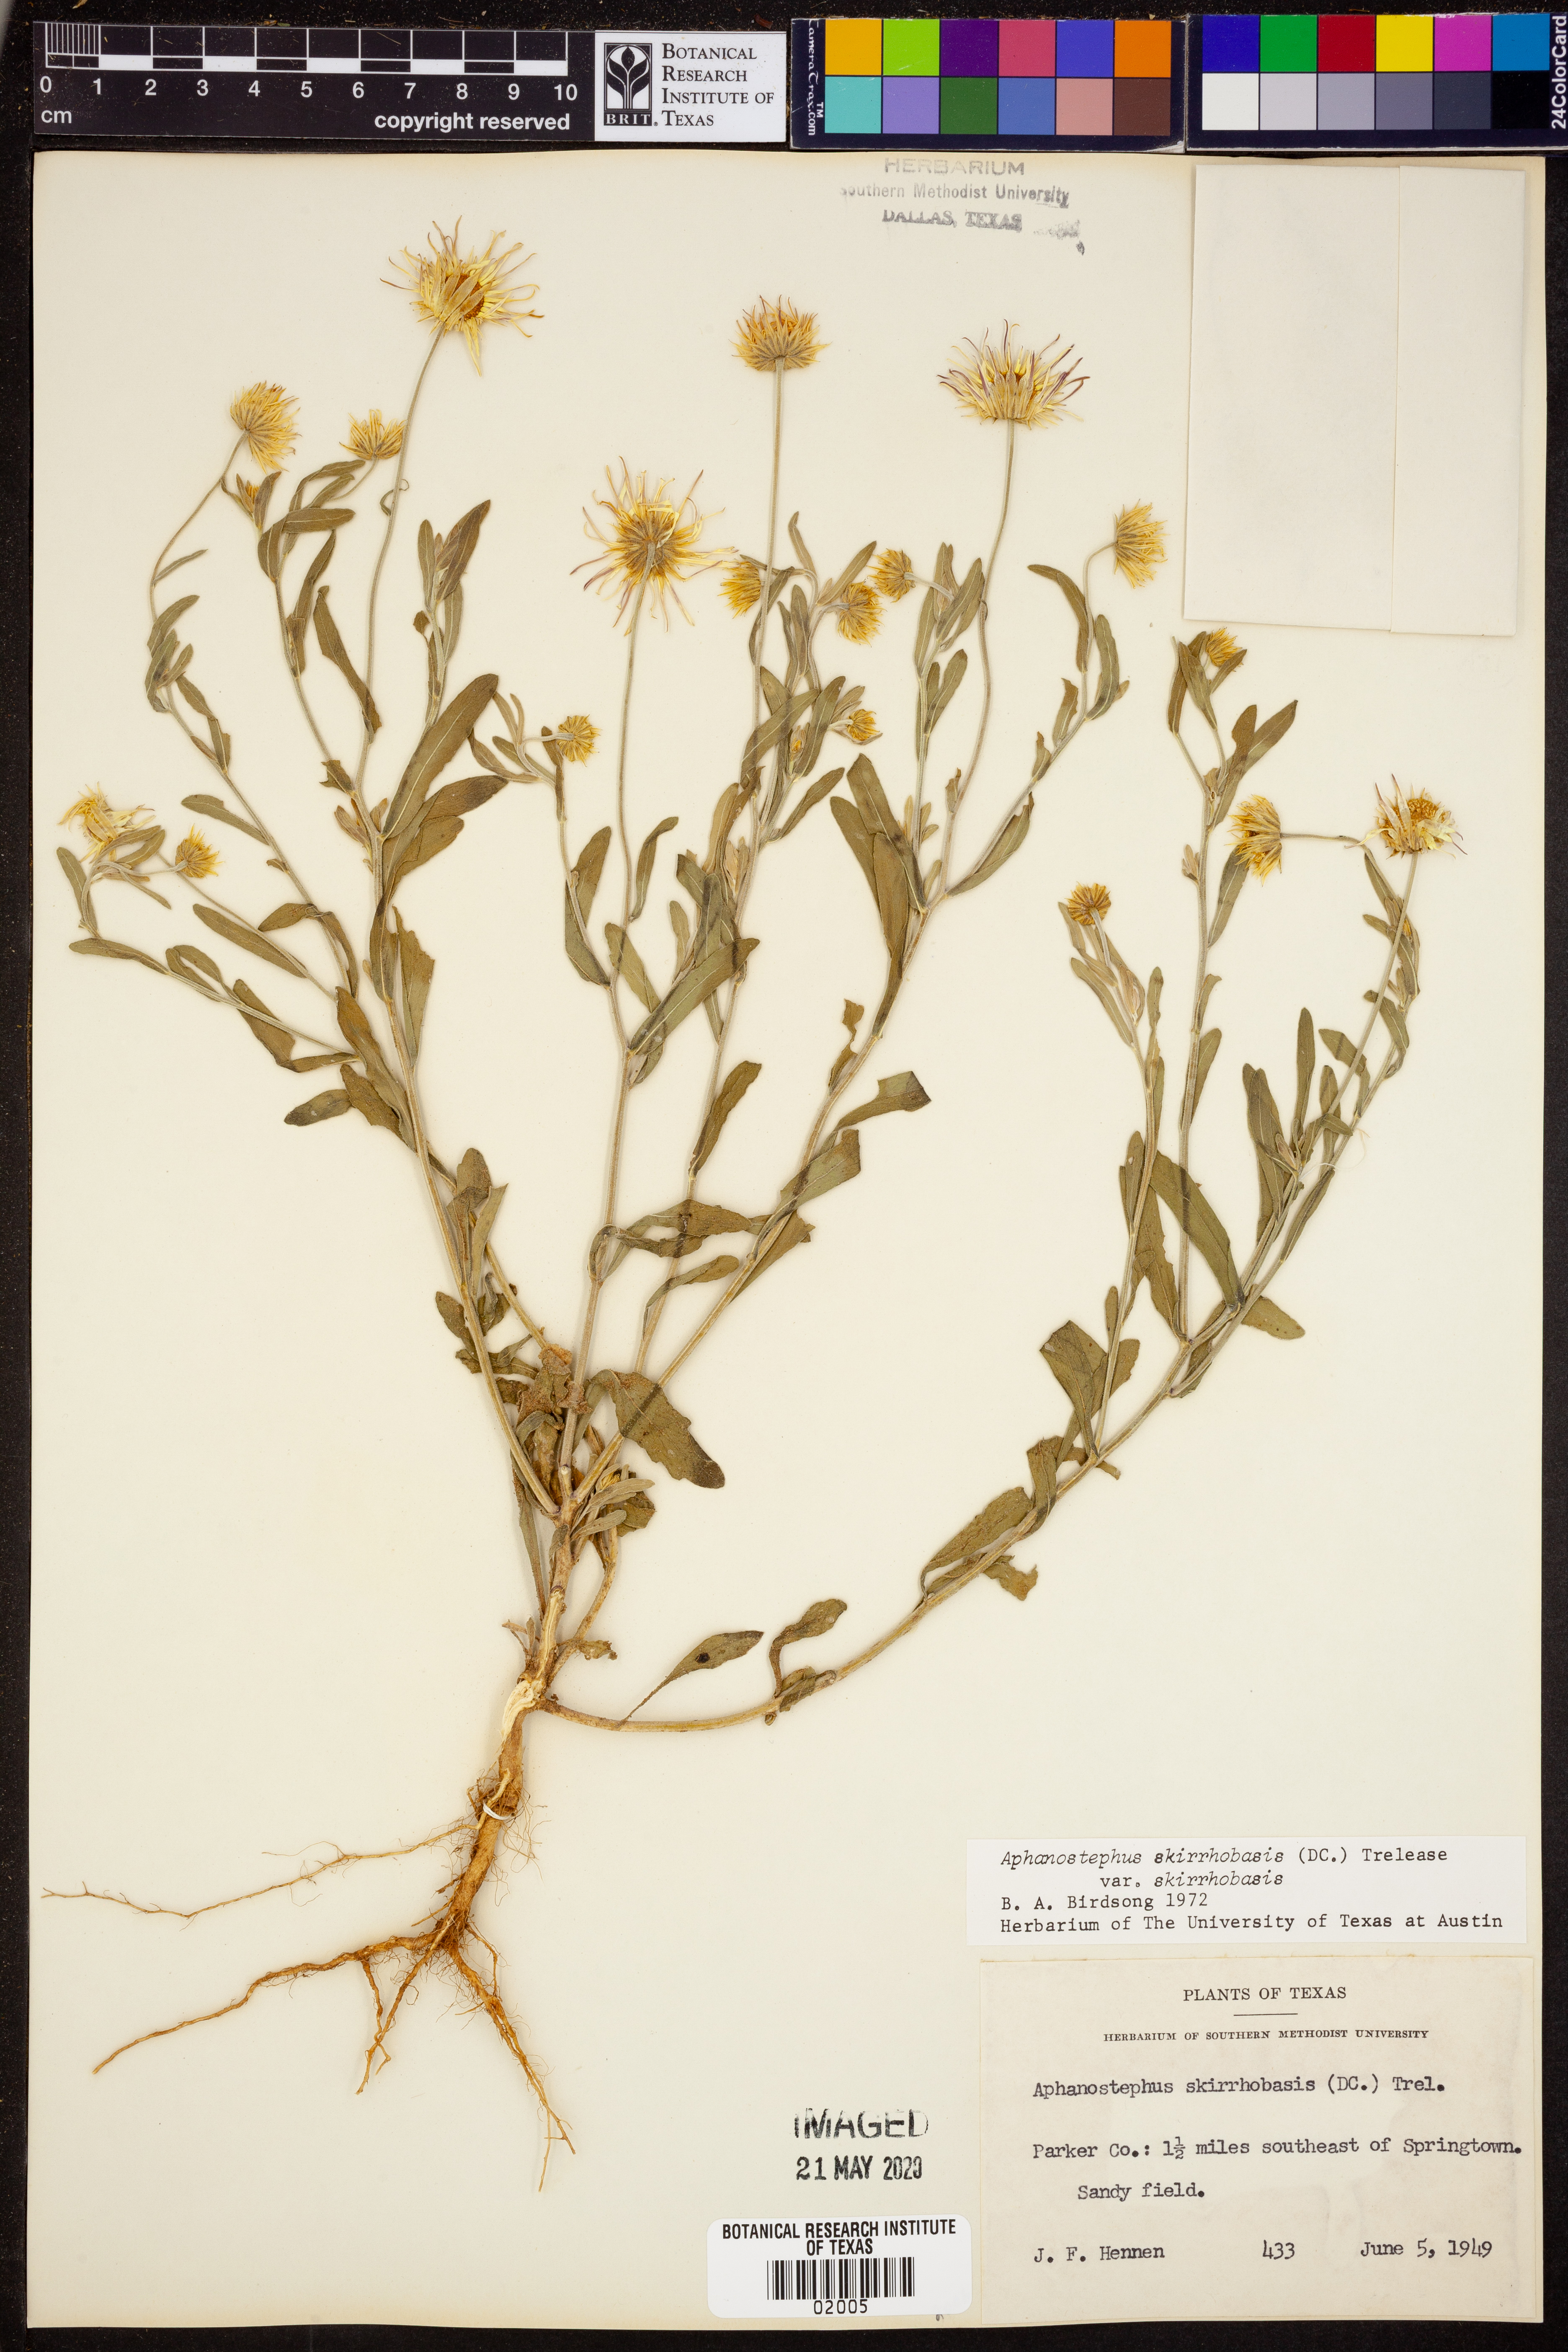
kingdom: Plantae
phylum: Tracheophyta
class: Magnoliopsida
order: Asterales
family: Asteraceae
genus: Aphanostephus
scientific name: Aphanostephus skirrhobasis
